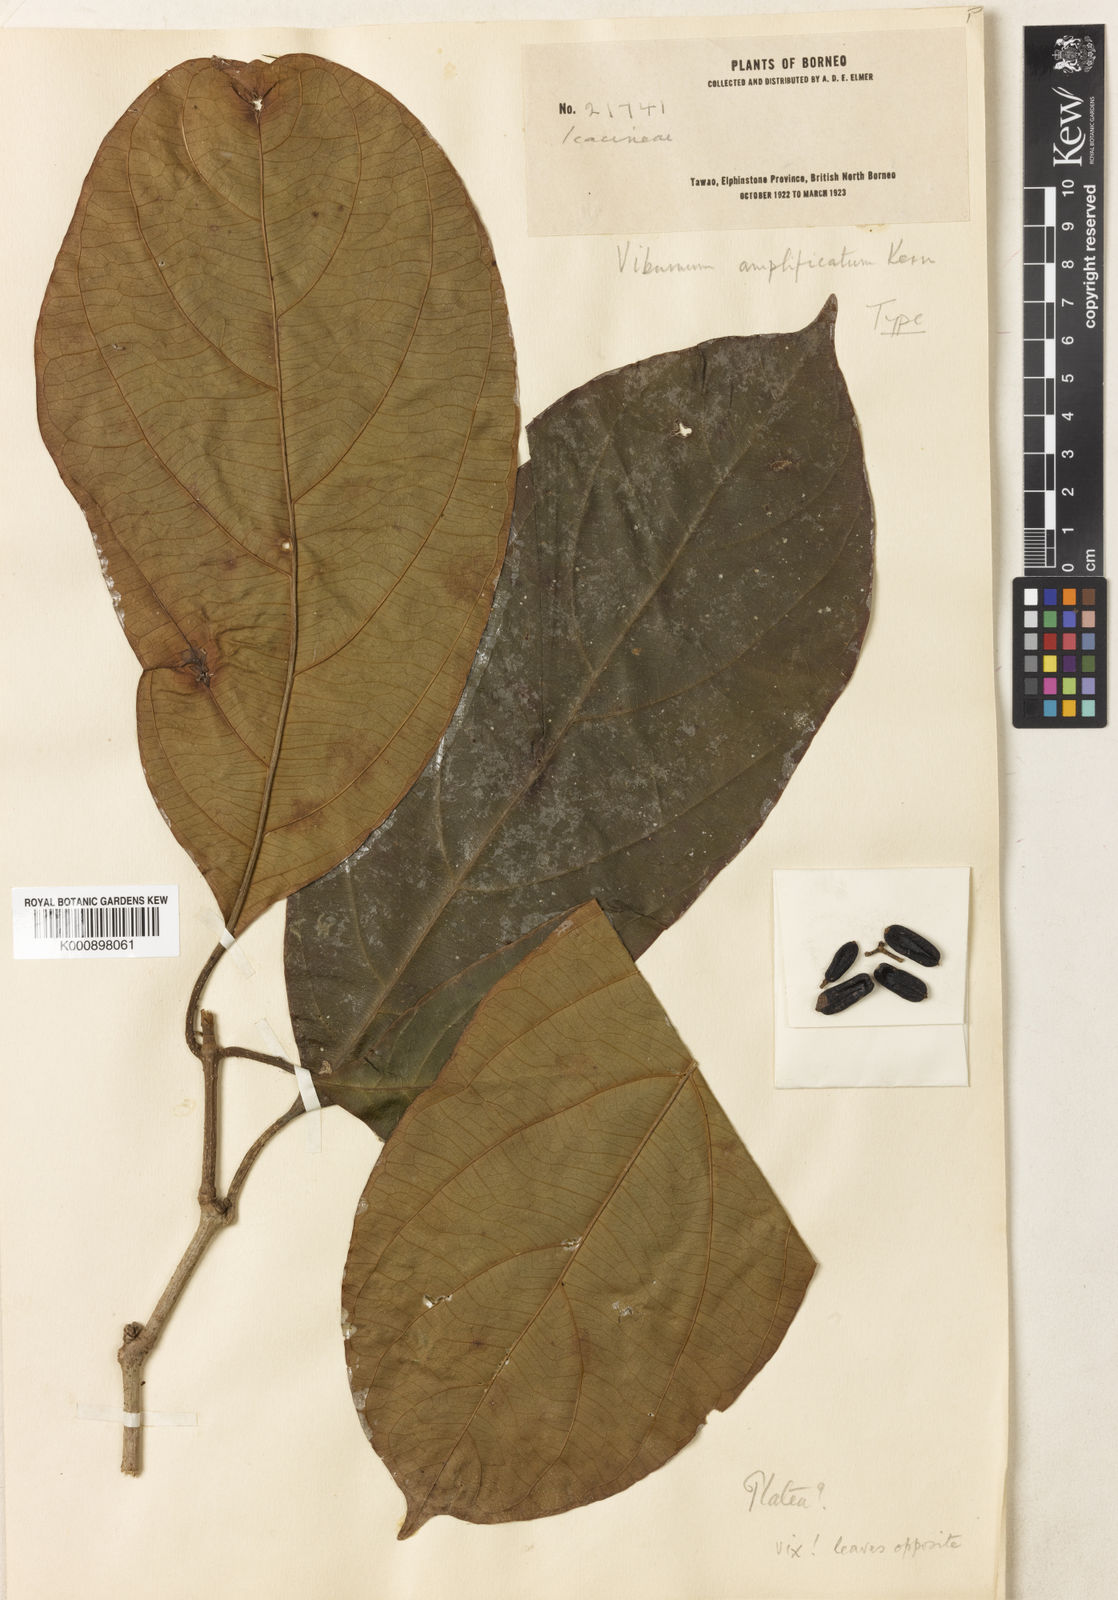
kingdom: Plantae
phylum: Tracheophyta
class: Magnoliopsida
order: Dipsacales
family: Viburnaceae
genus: Viburnum
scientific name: Viburnum amplificatum
